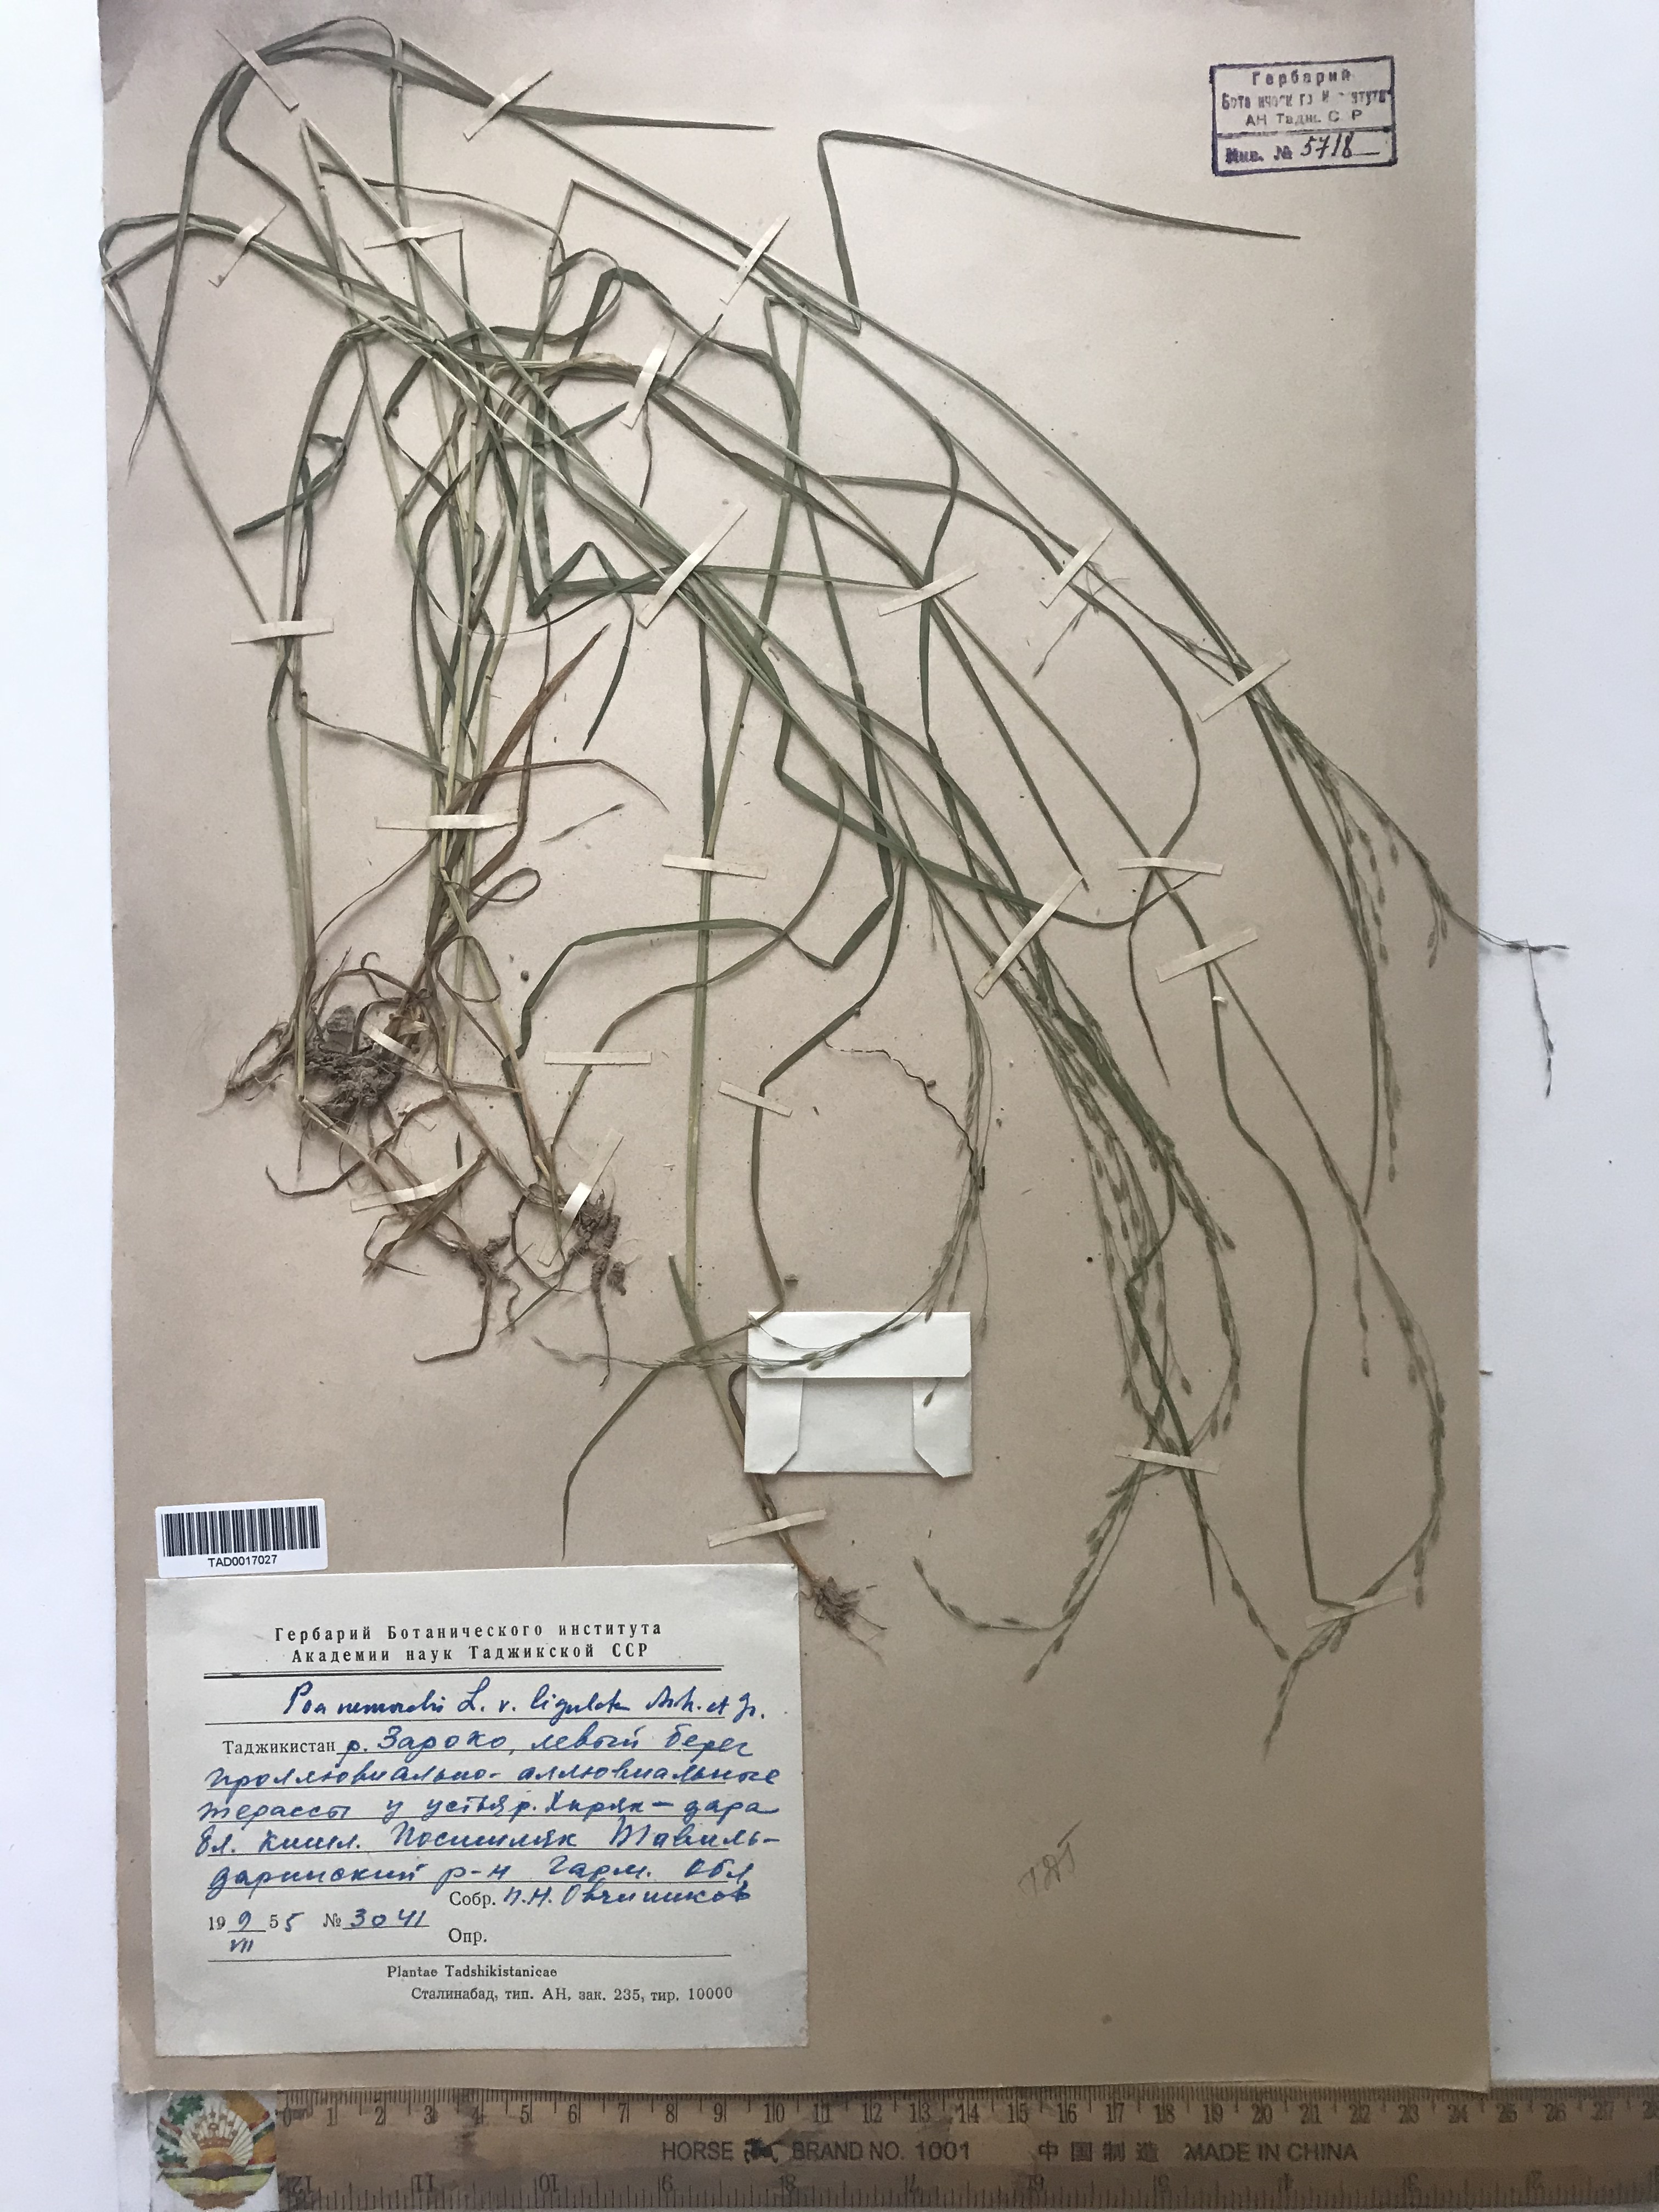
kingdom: Plantae
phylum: Tracheophyta
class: Liliopsida
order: Poales
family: Poaceae
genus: Poa
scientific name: Poa nemoralis
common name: Wood bluegrass
